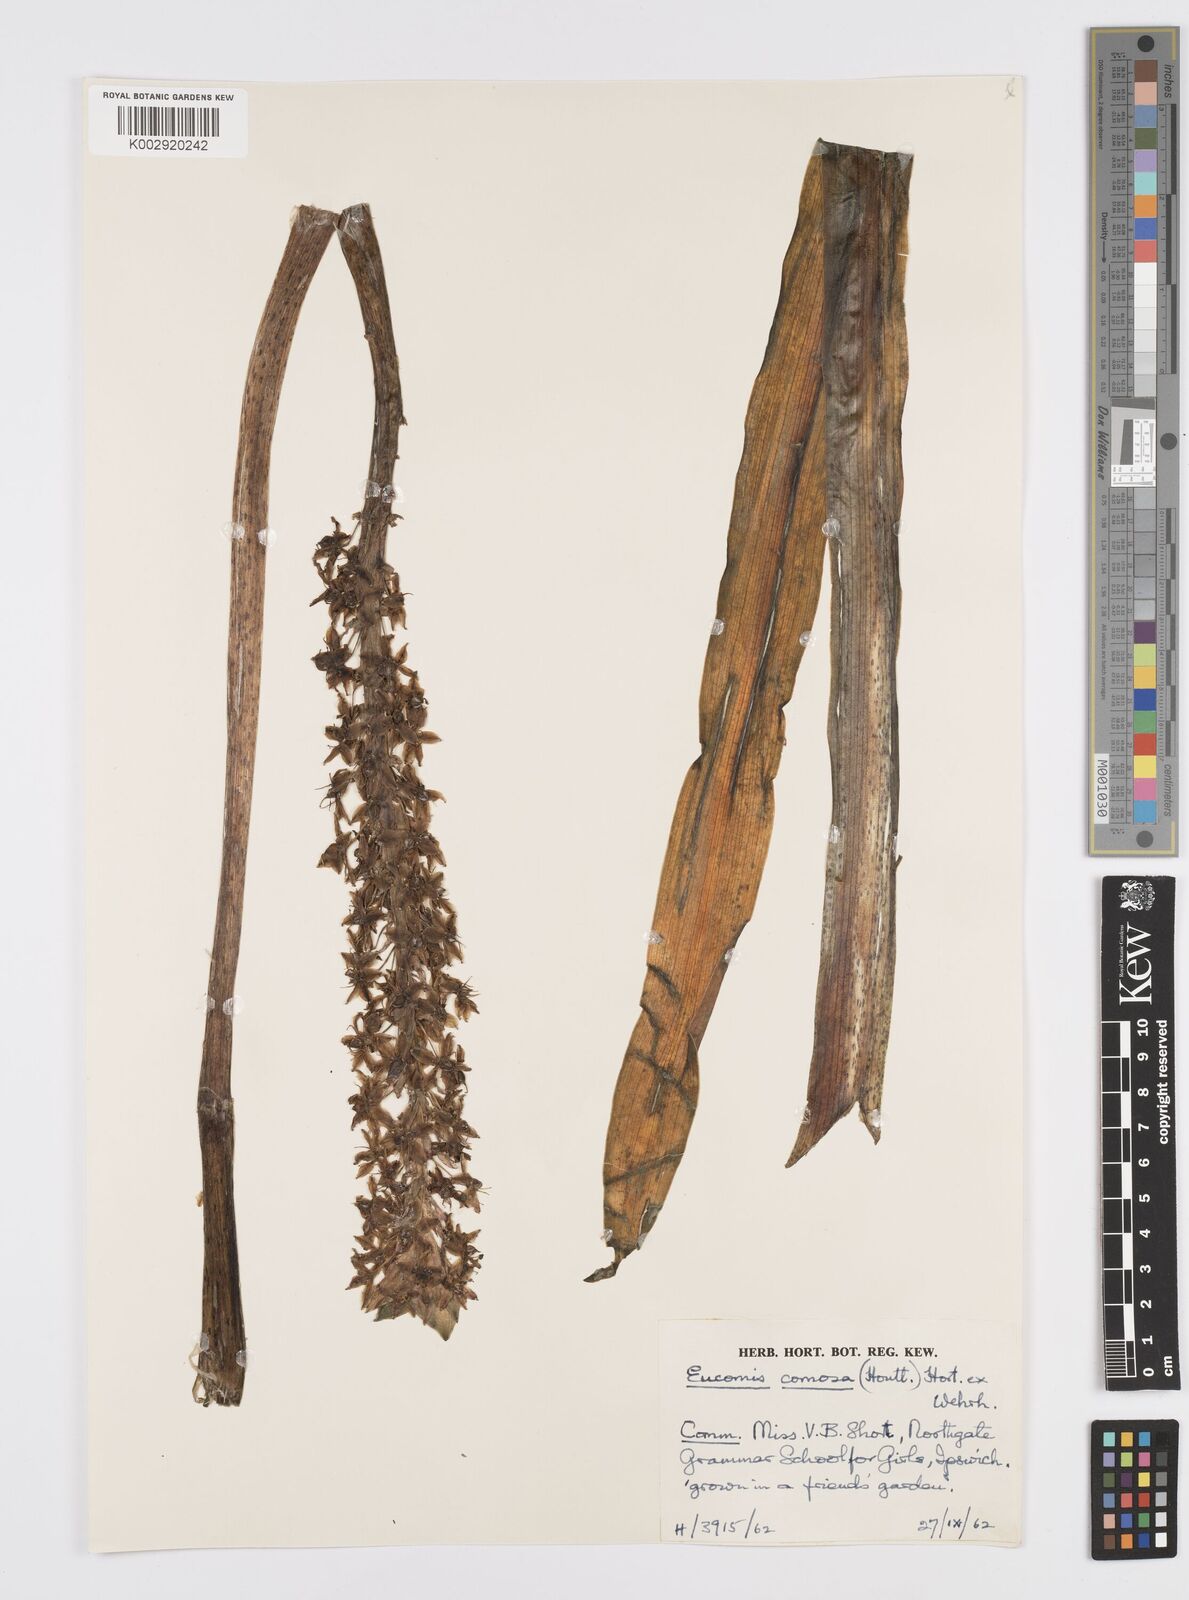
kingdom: Plantae
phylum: Tracheophyta
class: Liliopsida
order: Asparagales
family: Asparagaceae
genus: Eucomis
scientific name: Eucomis comosa
